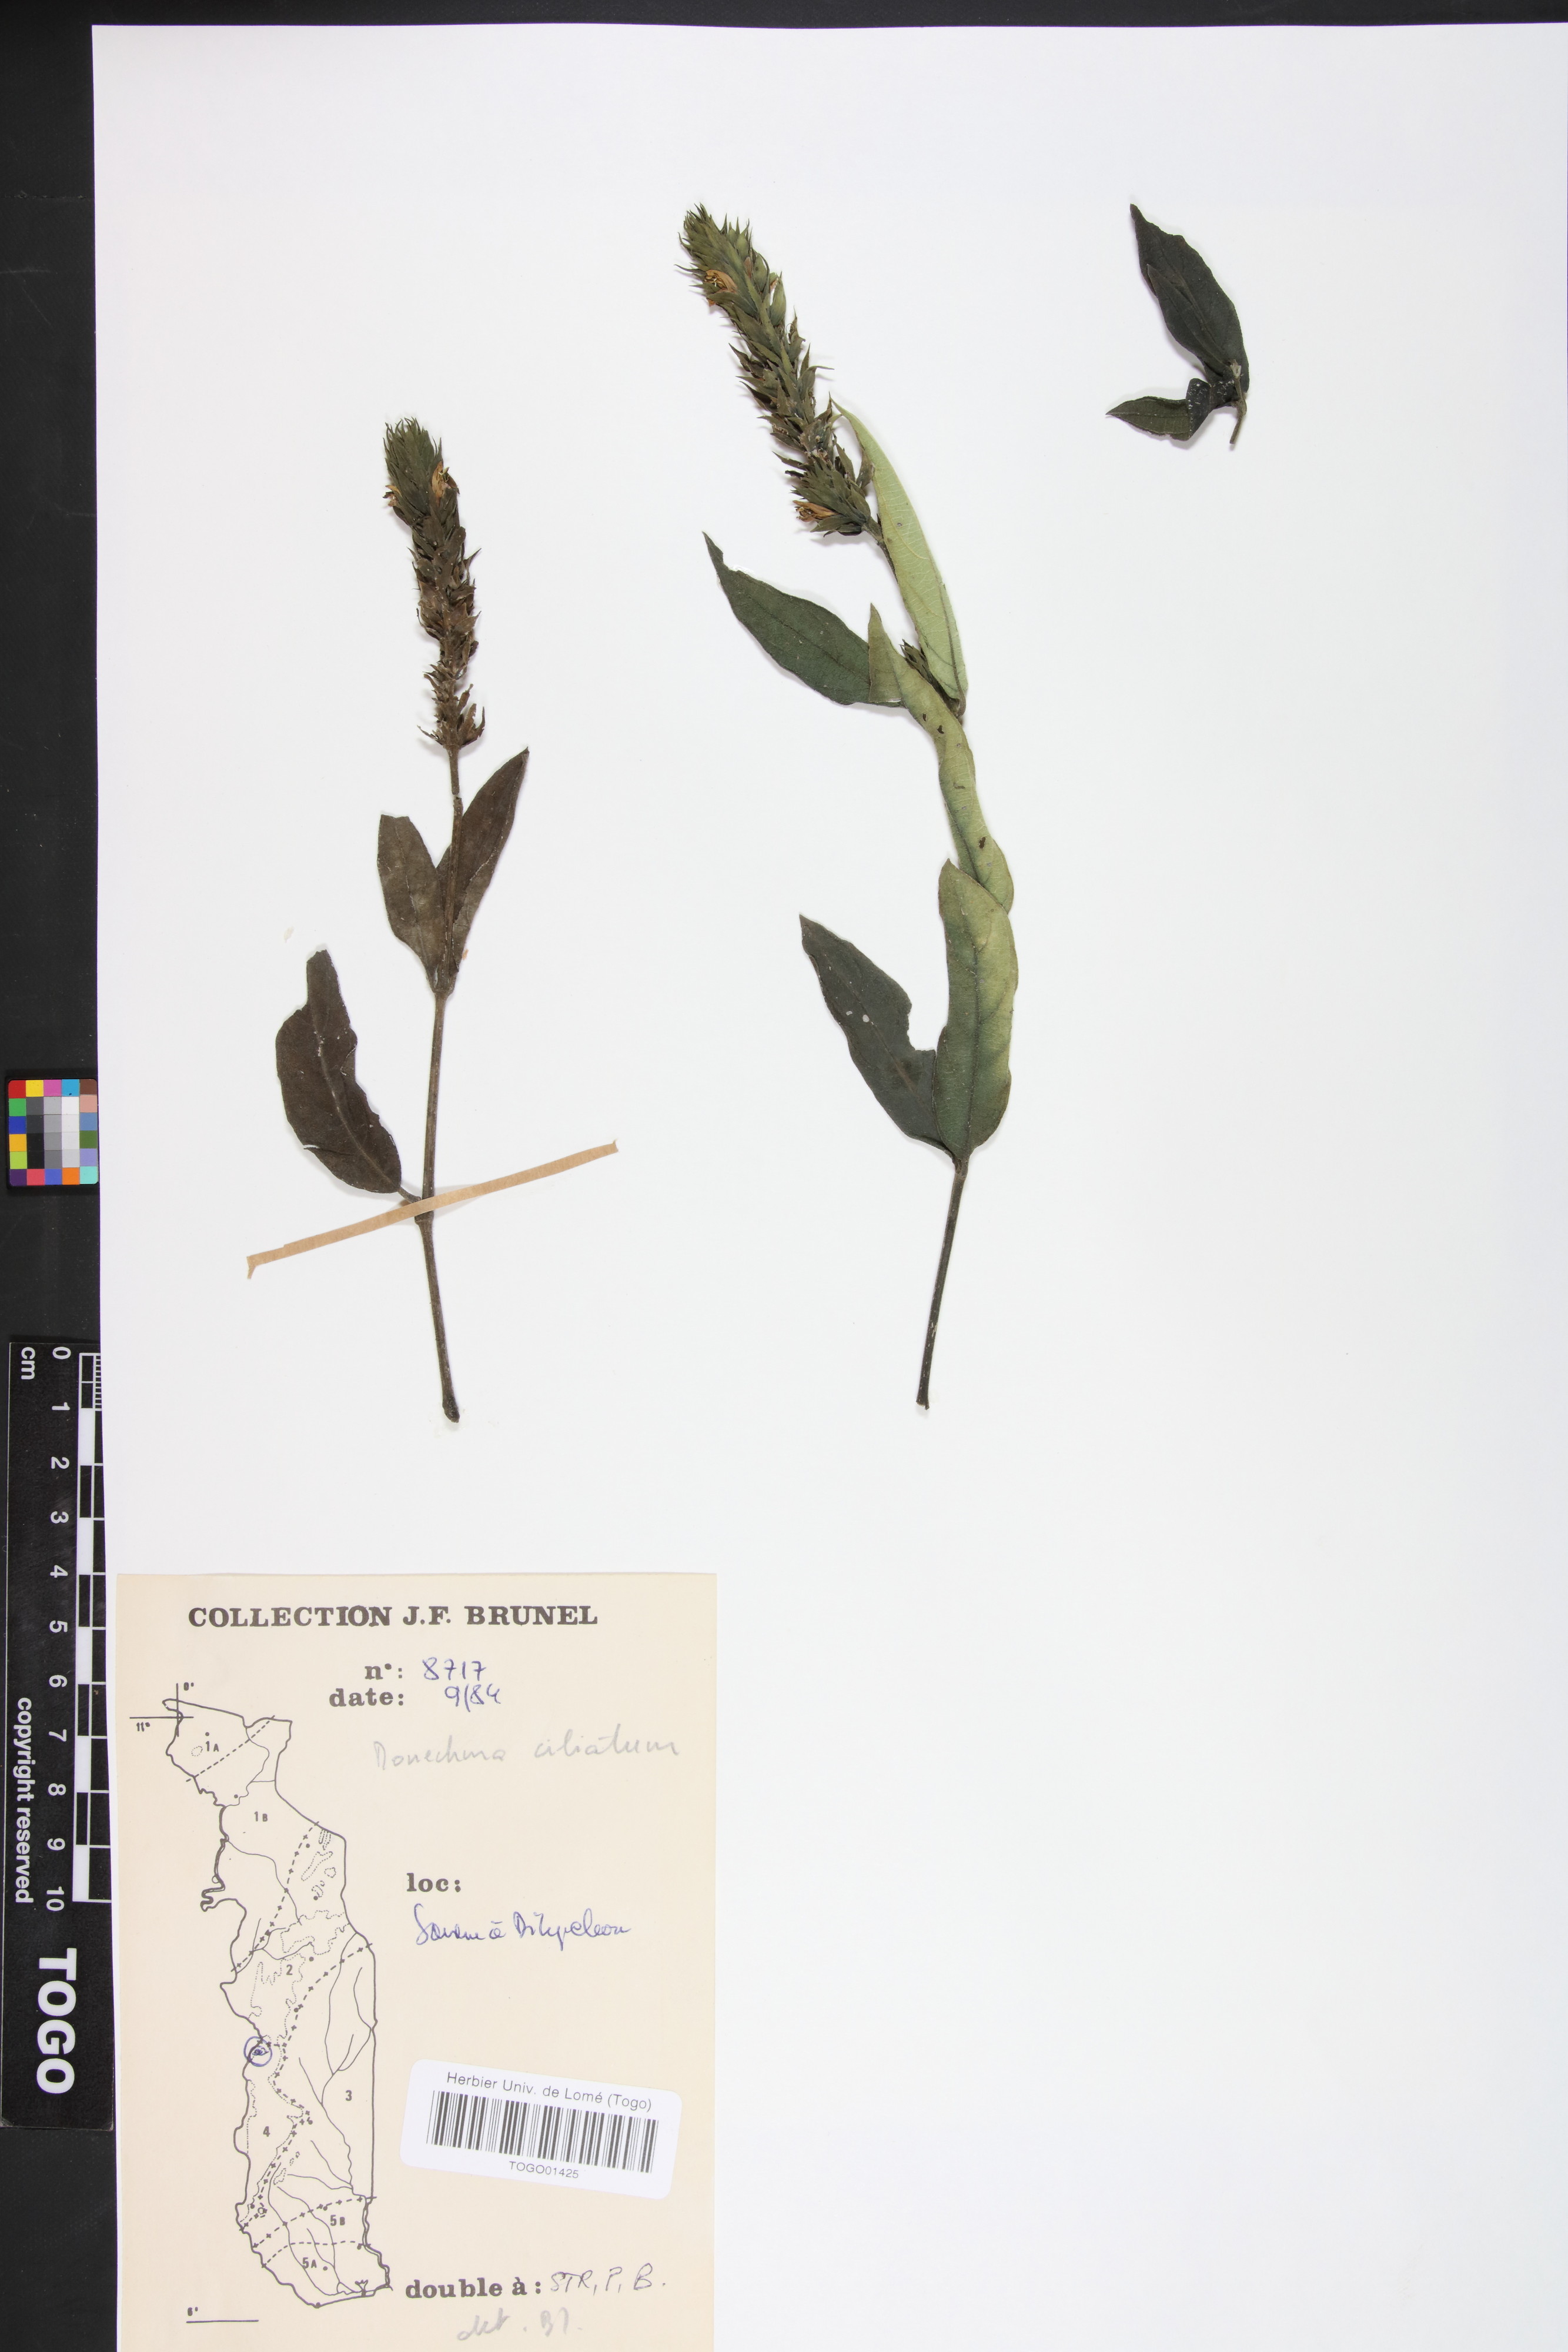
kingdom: Plantae
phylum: Tracheophyta
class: Magnoliopsida
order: Lamiales
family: Acanthaceae
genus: Pogonospermum
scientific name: Pogonospermum ciliare
